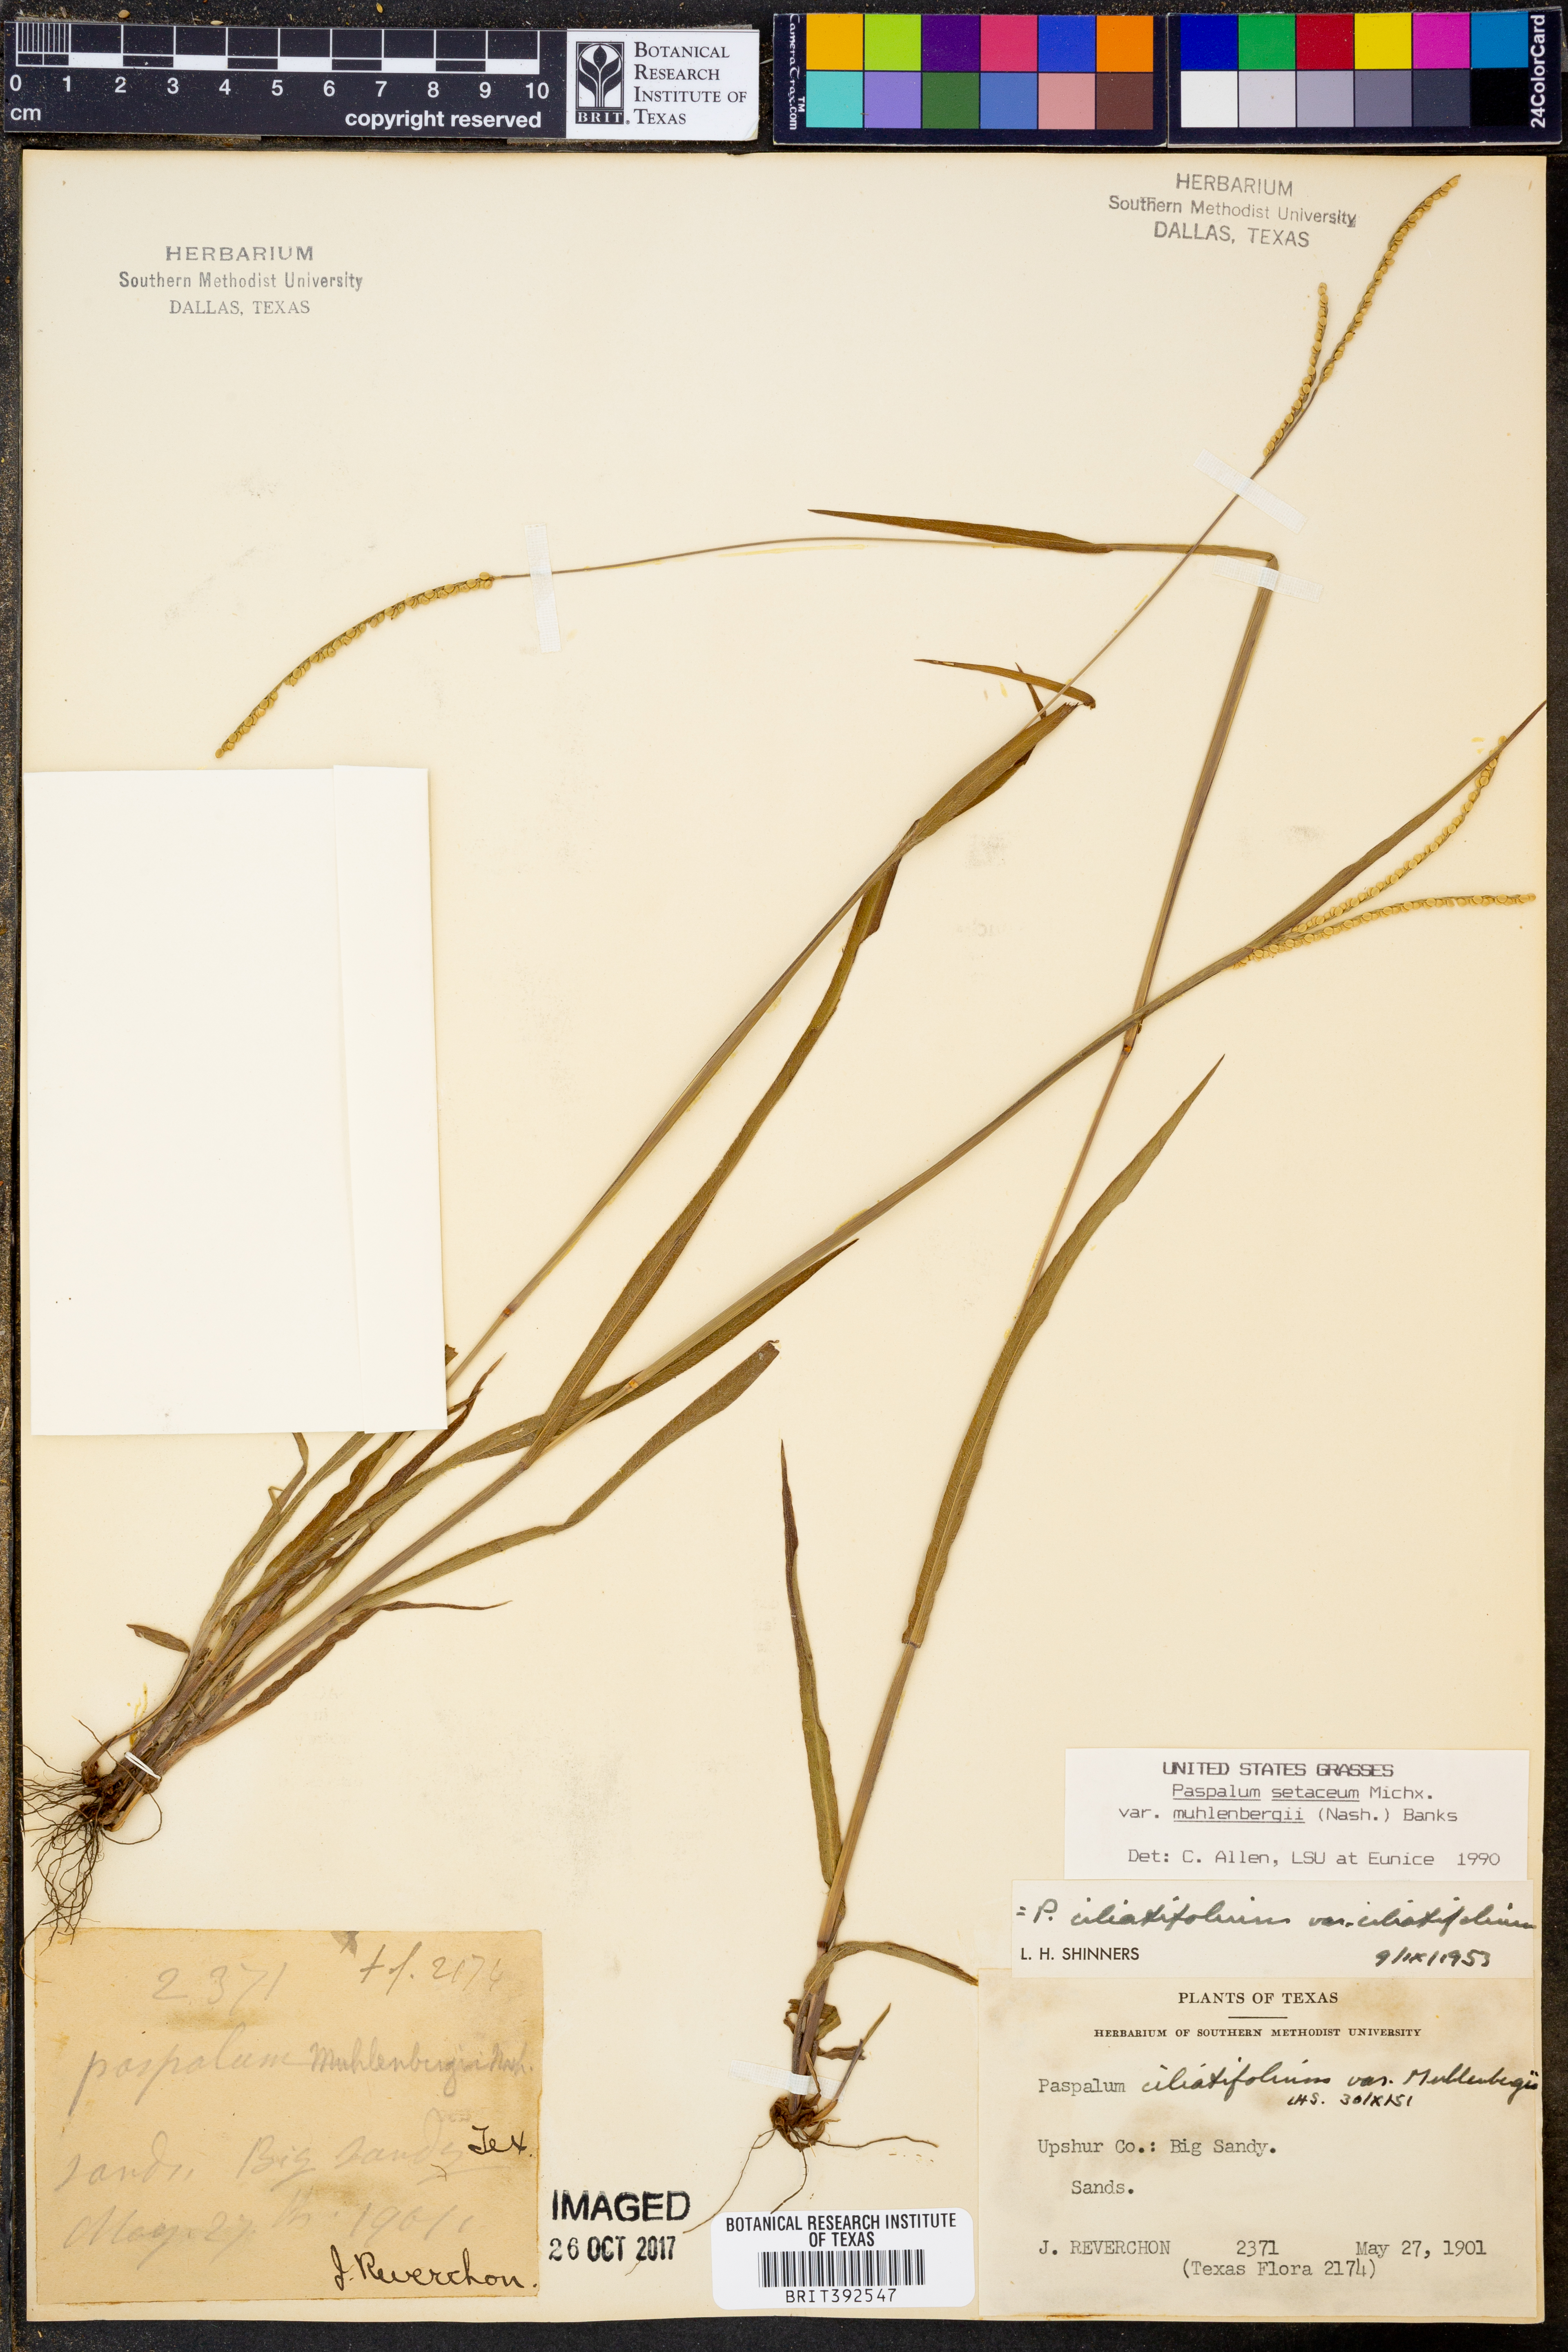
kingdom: Plantae
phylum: Tracheophyta
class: Liliopsida
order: Poales
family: Poaceae
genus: Paspalum
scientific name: Paspalum setaceum
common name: Slender paspalum
